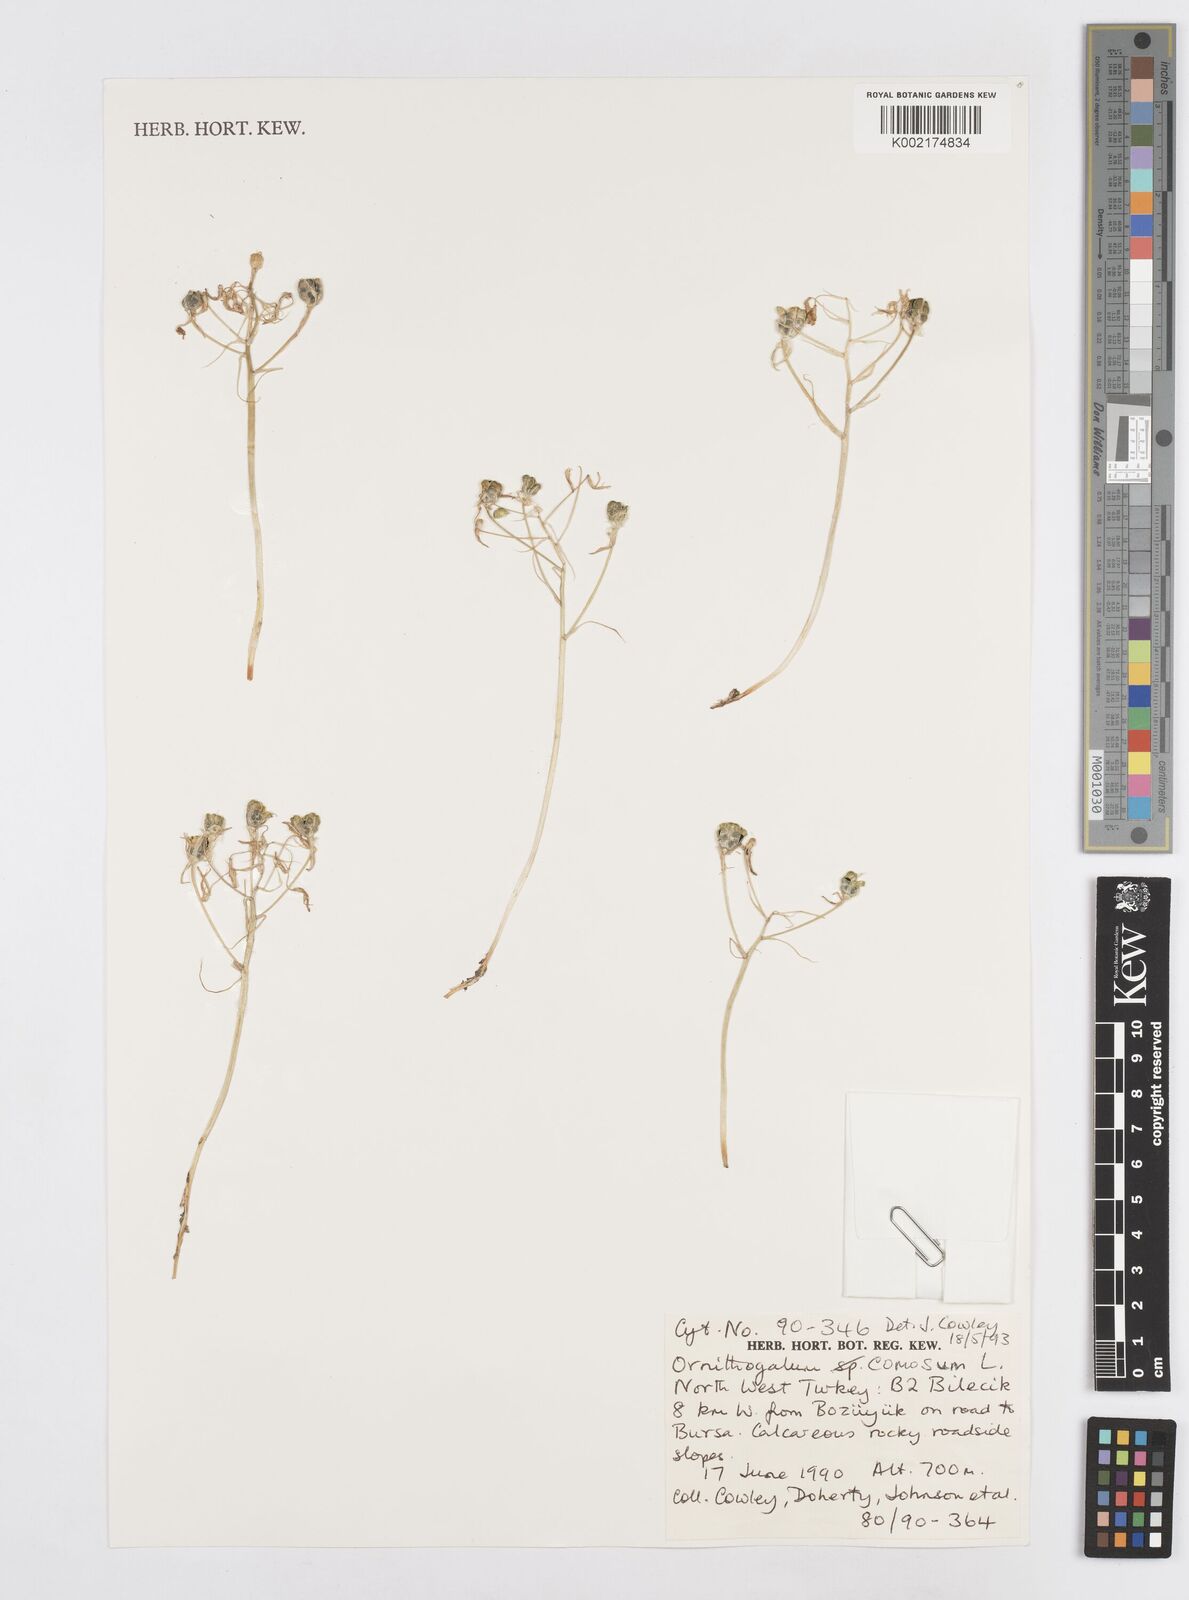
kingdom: Plantae
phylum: Tracheophyta
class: Liliopsida
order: Asparagales
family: Asparagaceae
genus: Ornithogalum
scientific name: Ornithogalum comosum
